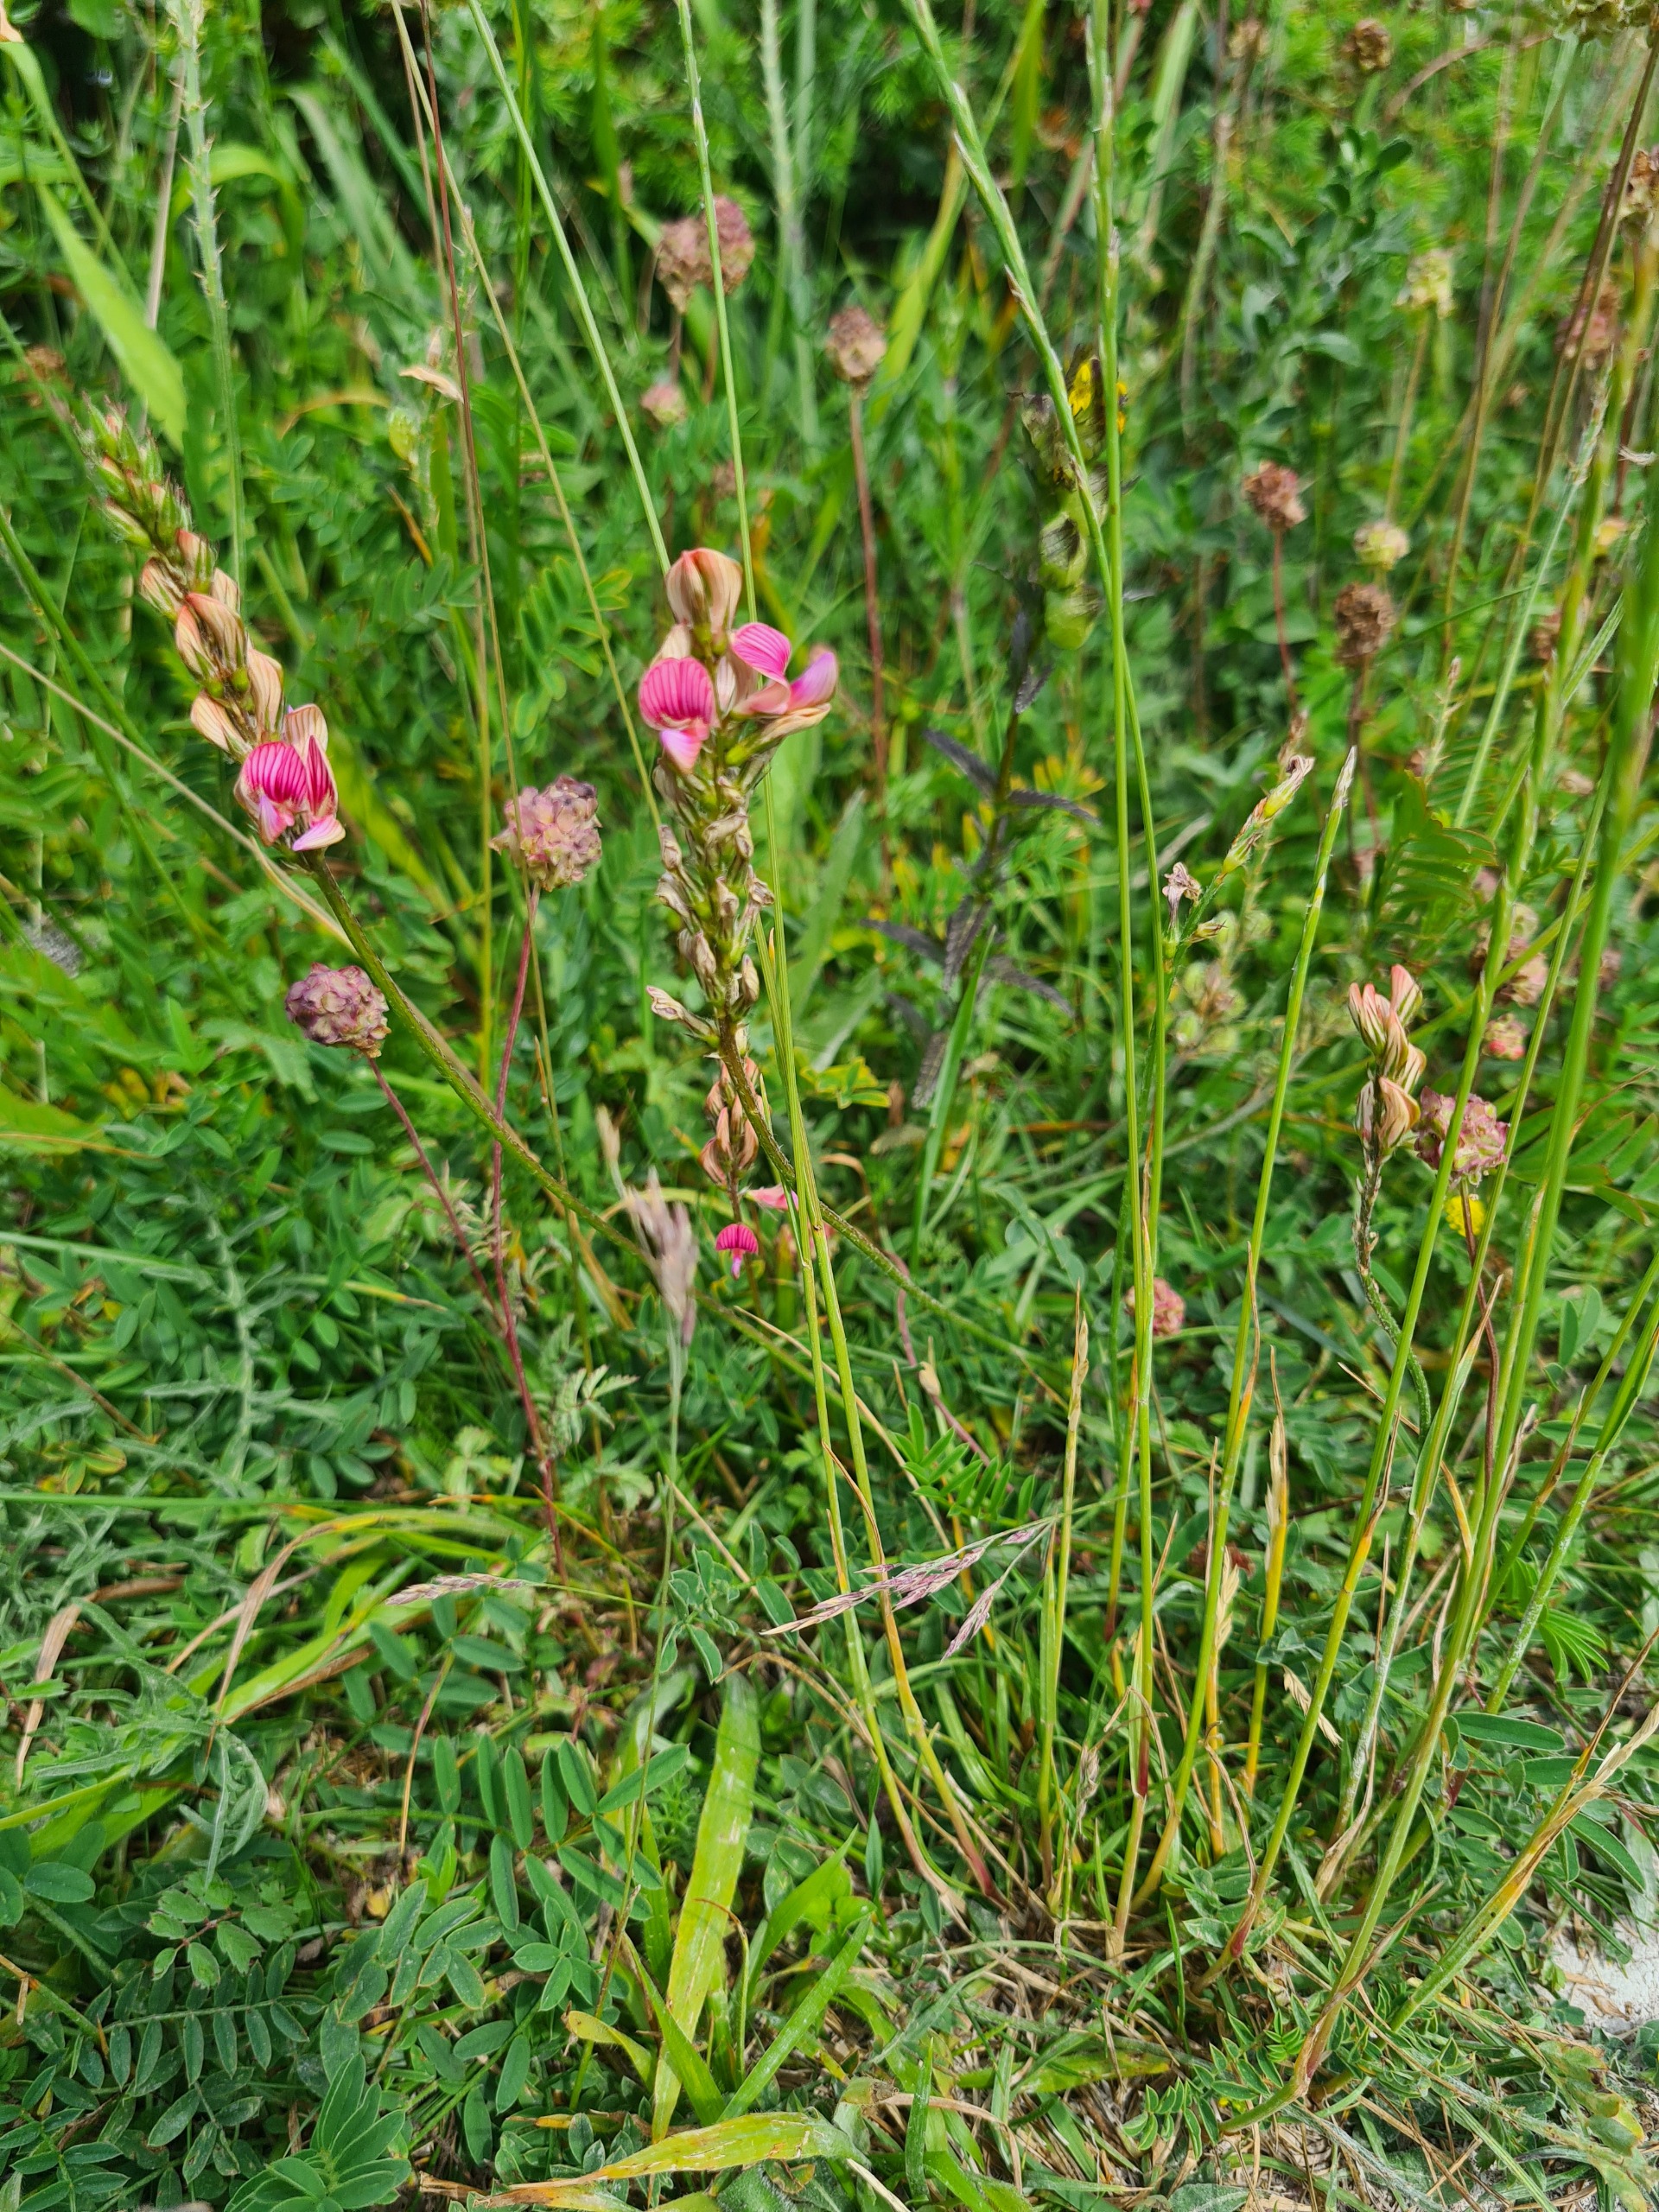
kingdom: Plantae
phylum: Tracheophyta
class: Magnoliopsida
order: Fabales
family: Fabaceae
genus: Onobrychis
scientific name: Onobrychis viciifolia
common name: Esparsette
